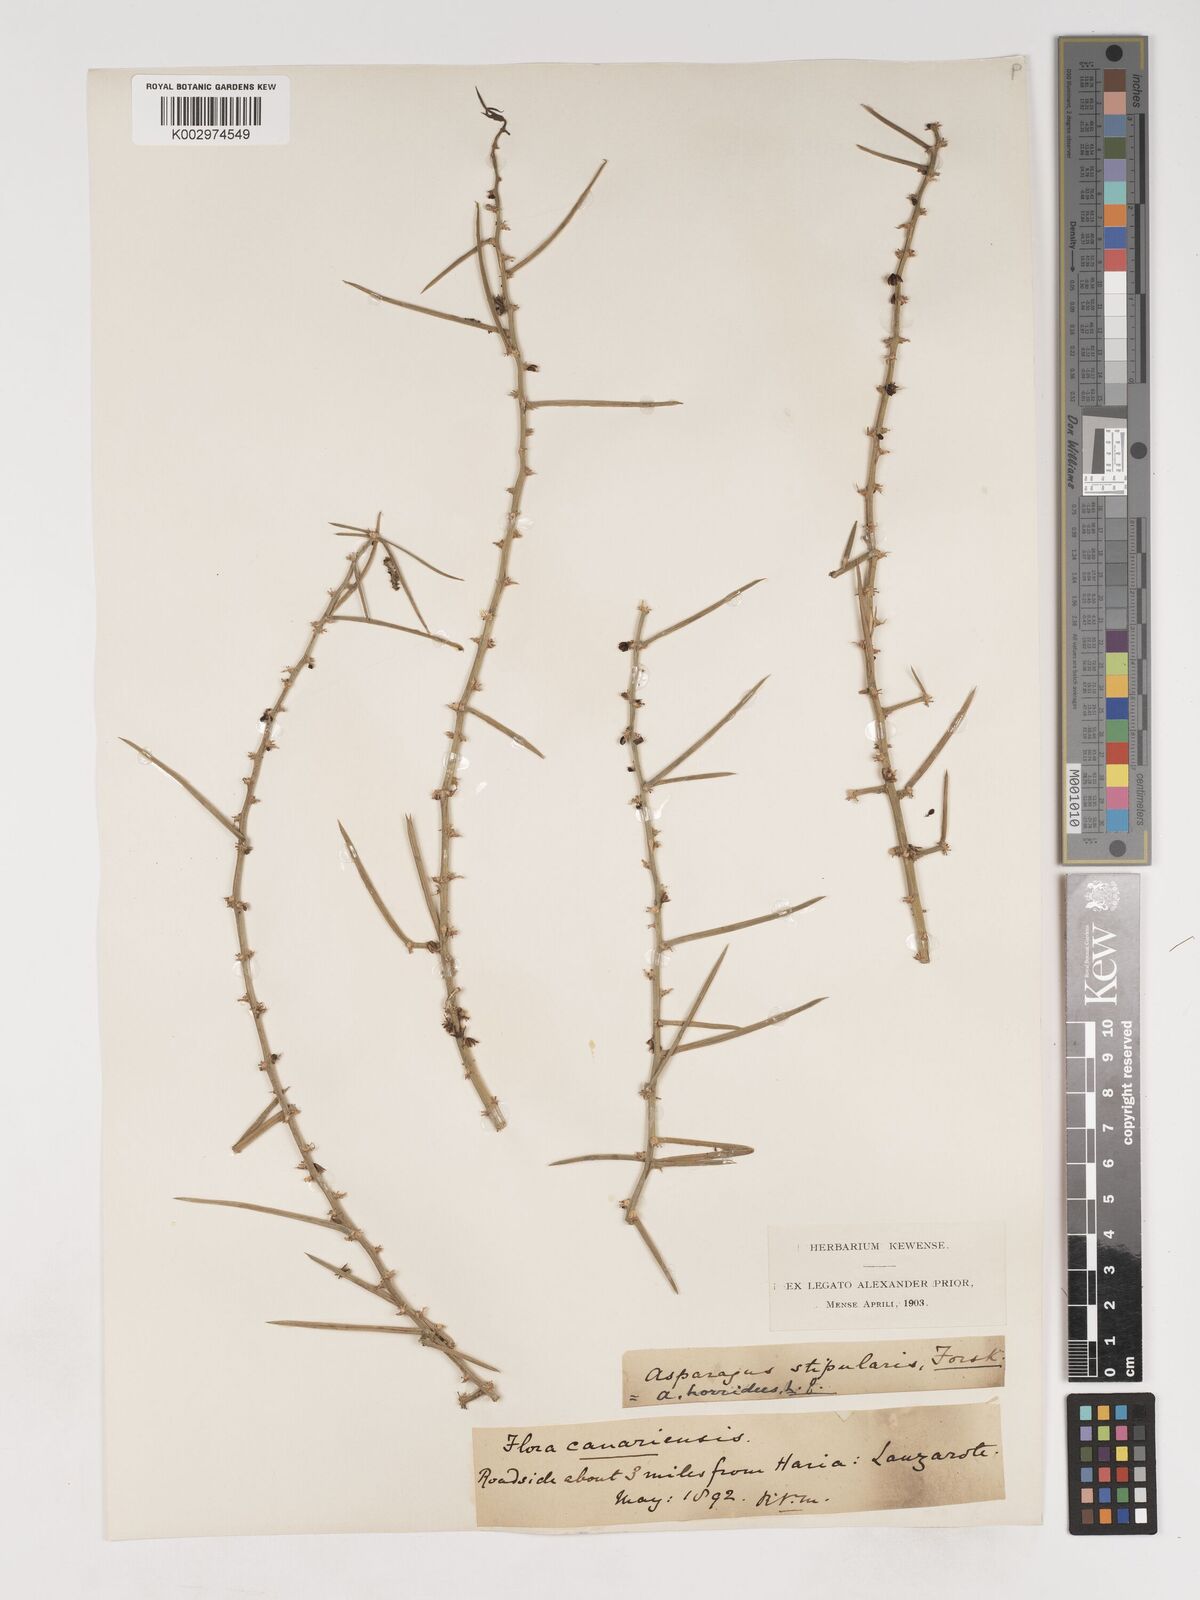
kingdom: Plantae
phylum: Tracheophyta
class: Liliopsida
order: Asparagales
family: Asparagaceae
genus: Asparagus
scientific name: Asparagus aphyllus
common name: Mediterranean asparagus
